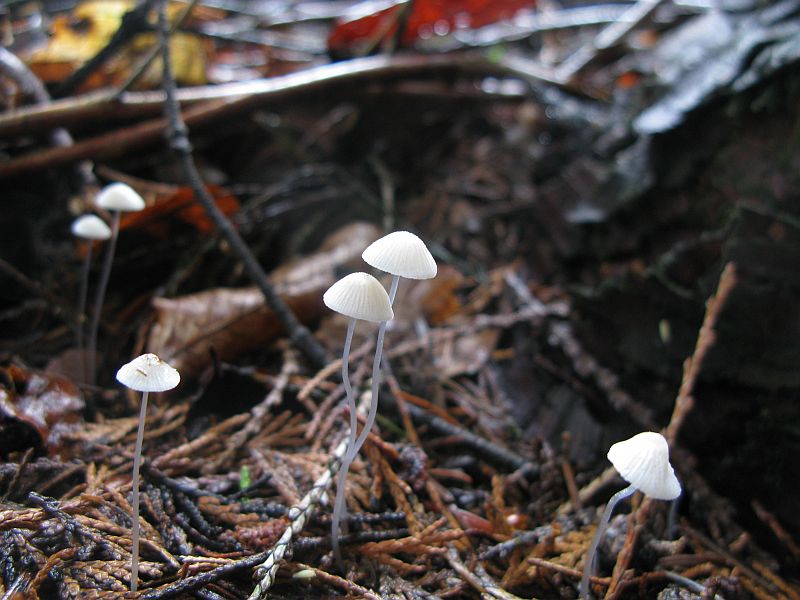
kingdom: Fungi
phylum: Basidiomycota
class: Agaricomycetes
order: Agaricales
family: Mycenaceae
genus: Mycena
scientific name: Mycena stylobates
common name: fureskivet huesvamp
